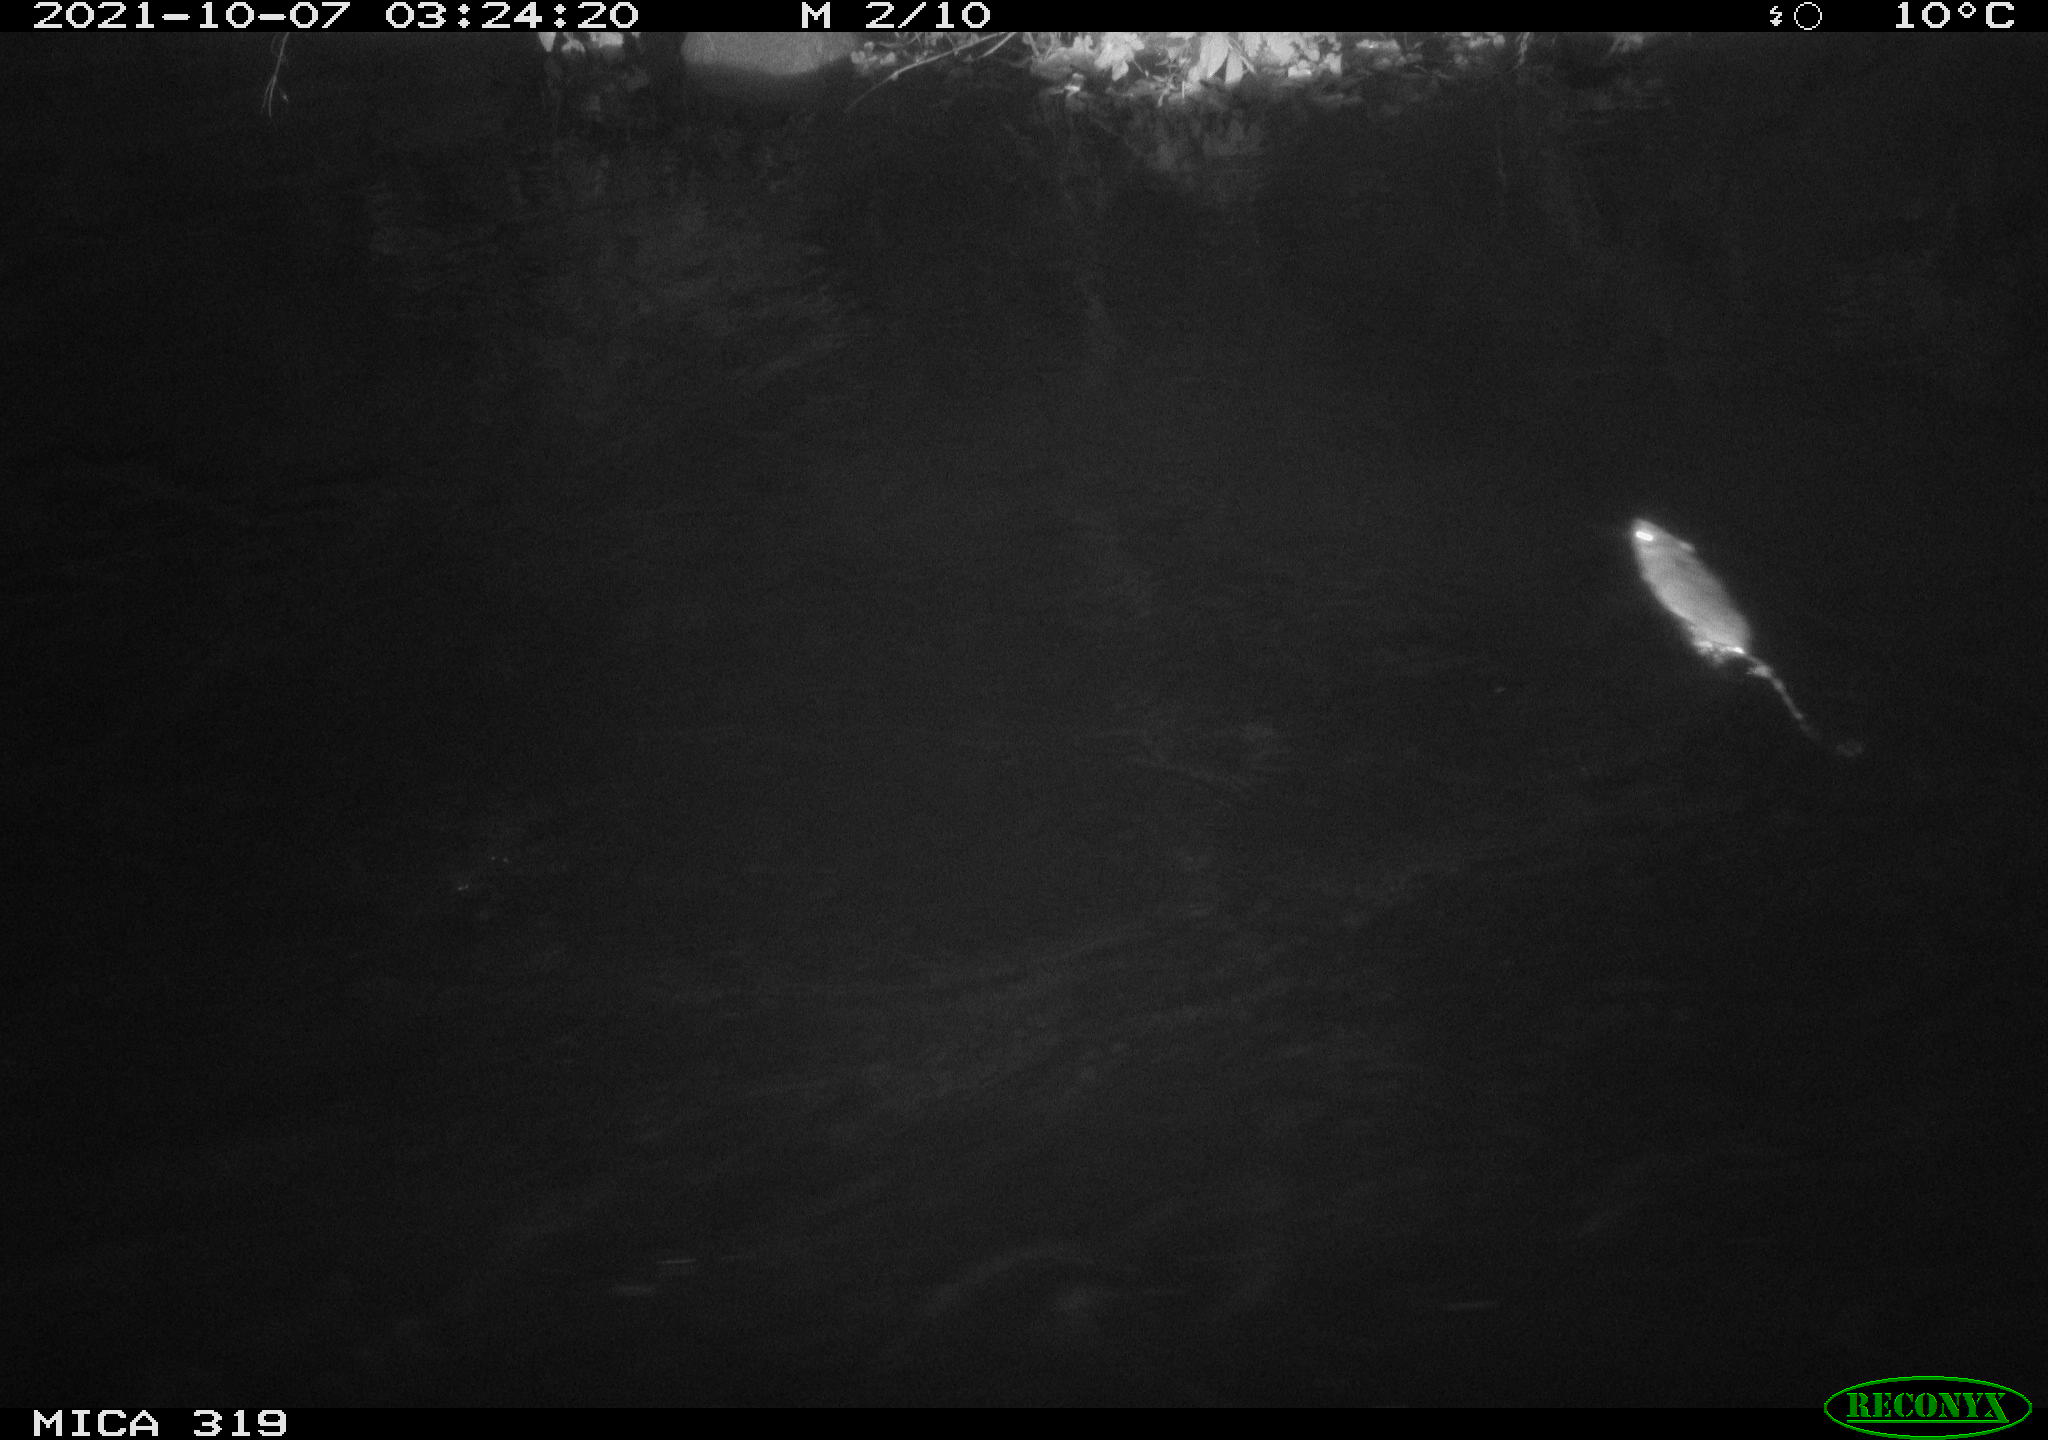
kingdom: Animalia
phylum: Chordata
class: Mammalia
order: Rodentia
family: Muridae
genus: Rattus
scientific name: Rattus norvegicus
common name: Brown rat
